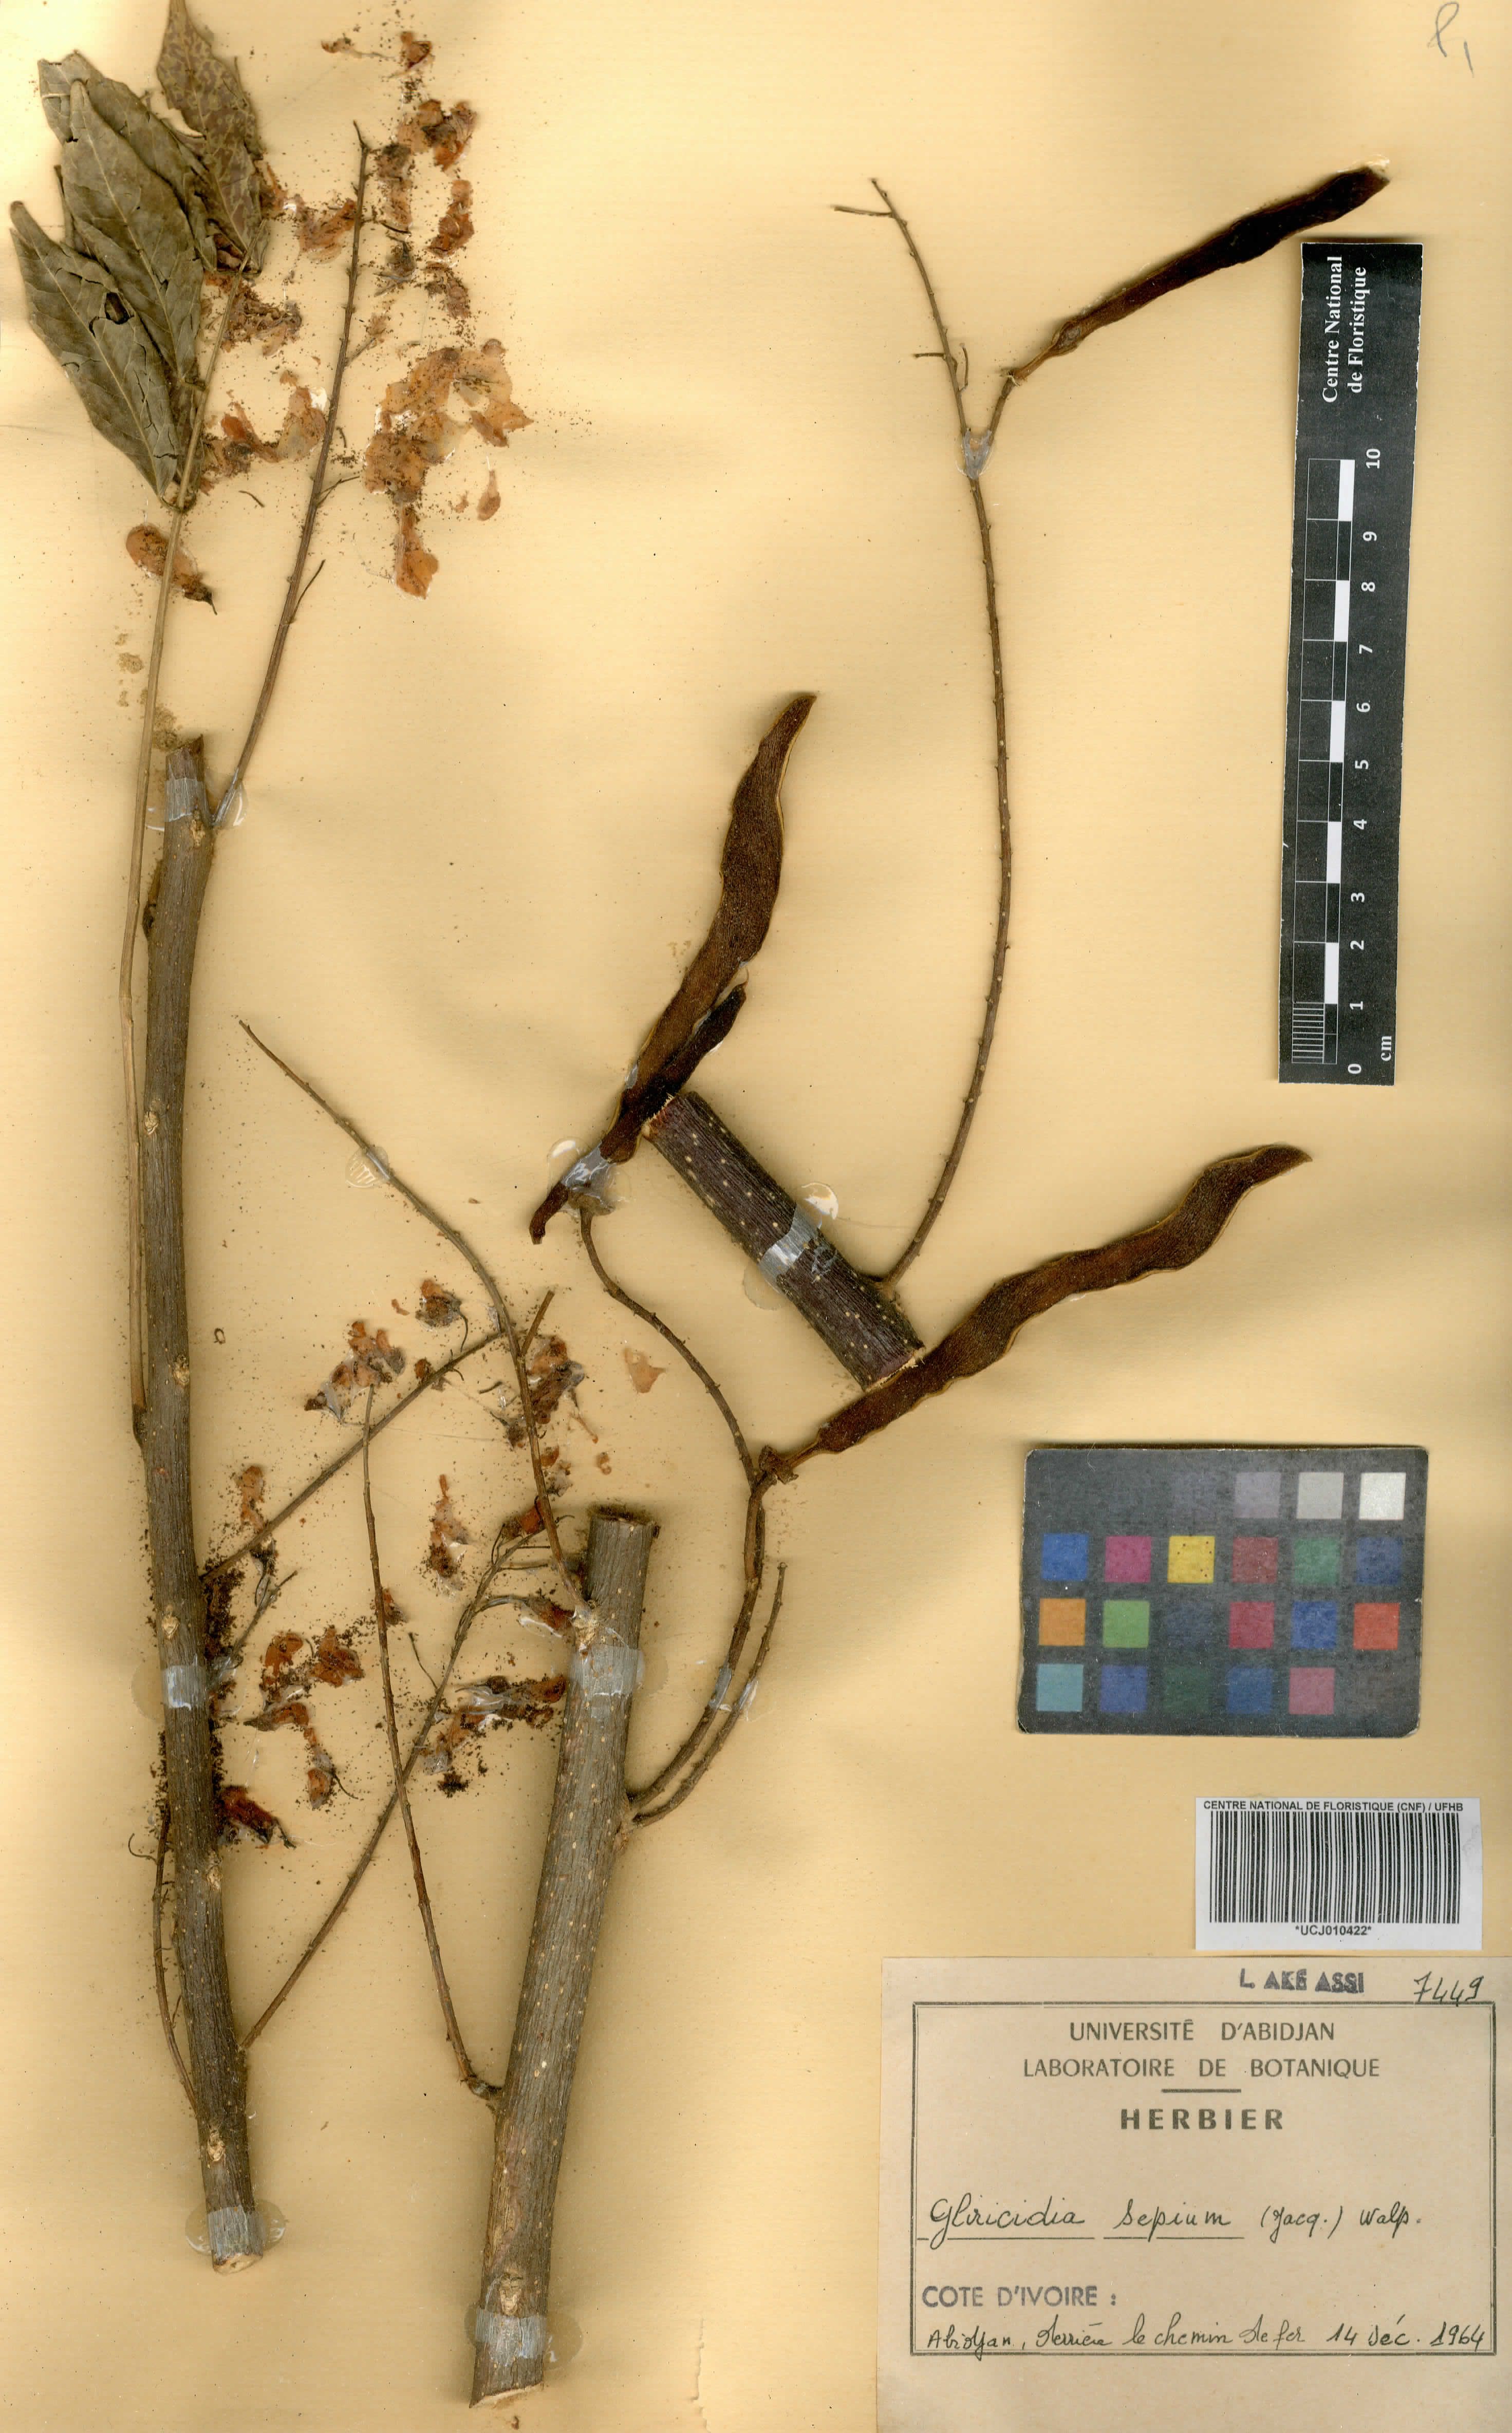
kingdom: Plantae
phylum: Tracheophyta
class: Magnoliopsida
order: Fabales
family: Fabaceae
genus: Gliricidia
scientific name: Gliricidia sepium
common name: Quickstick
